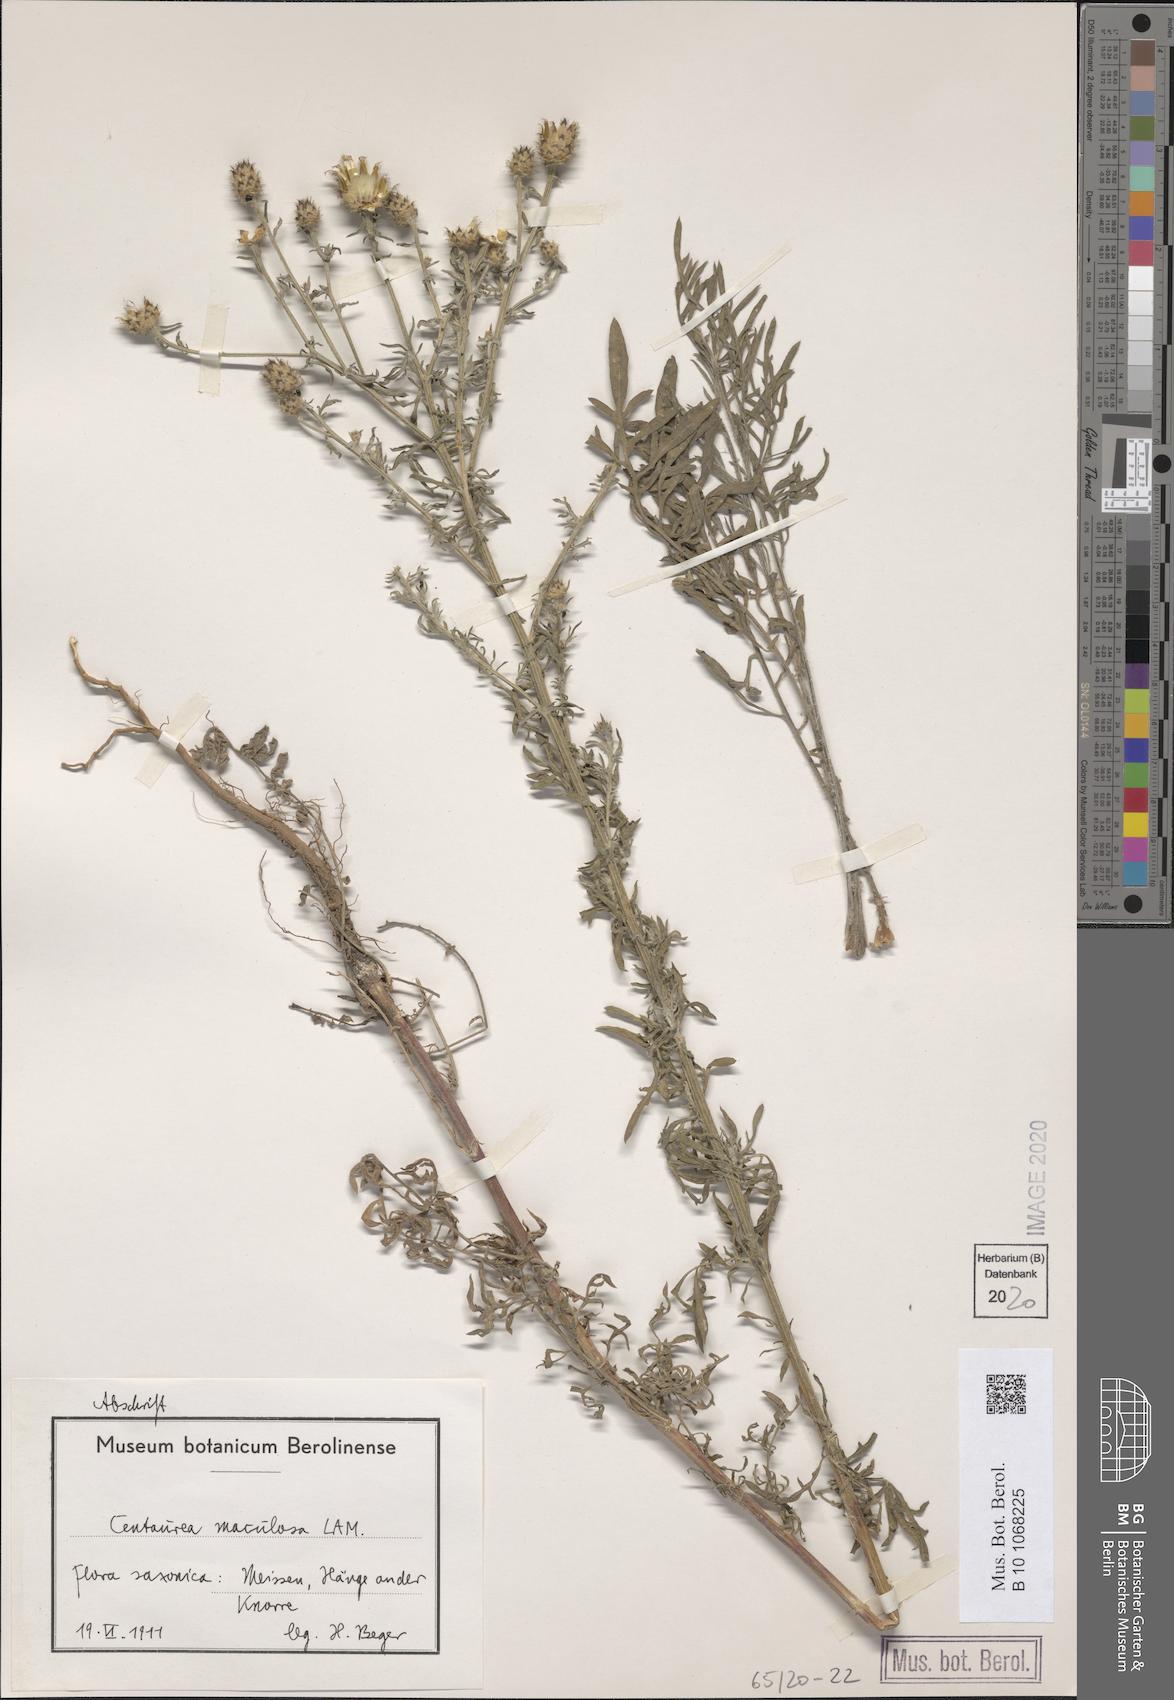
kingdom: Plantae
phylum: Tracheophyta
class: Magnoliopsida
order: Asterales
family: Asteraceae
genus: Centaurea
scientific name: Centaurea stoebe
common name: Spotted knapweed
